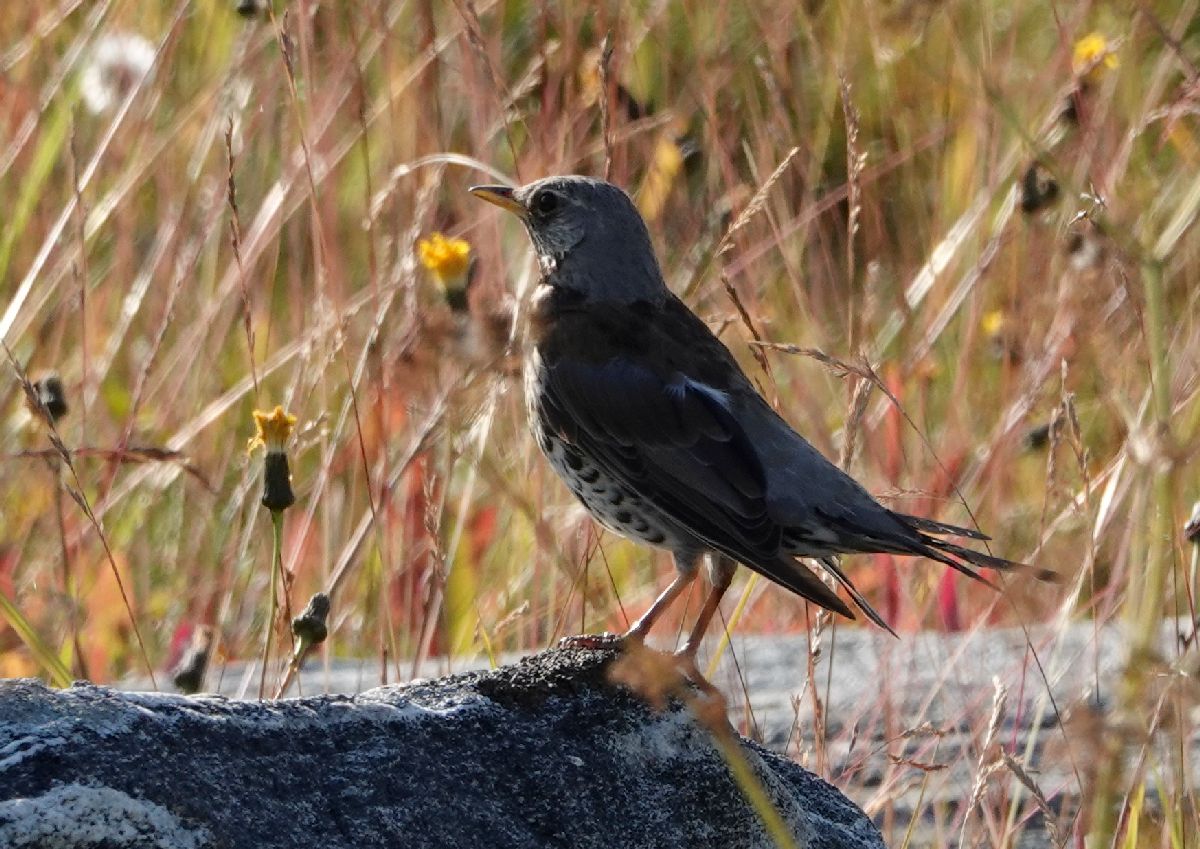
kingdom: Animalia
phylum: Chordata
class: Aves
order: Passeriformes
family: Turdidae
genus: Turdus
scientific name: Turdus pilaris
